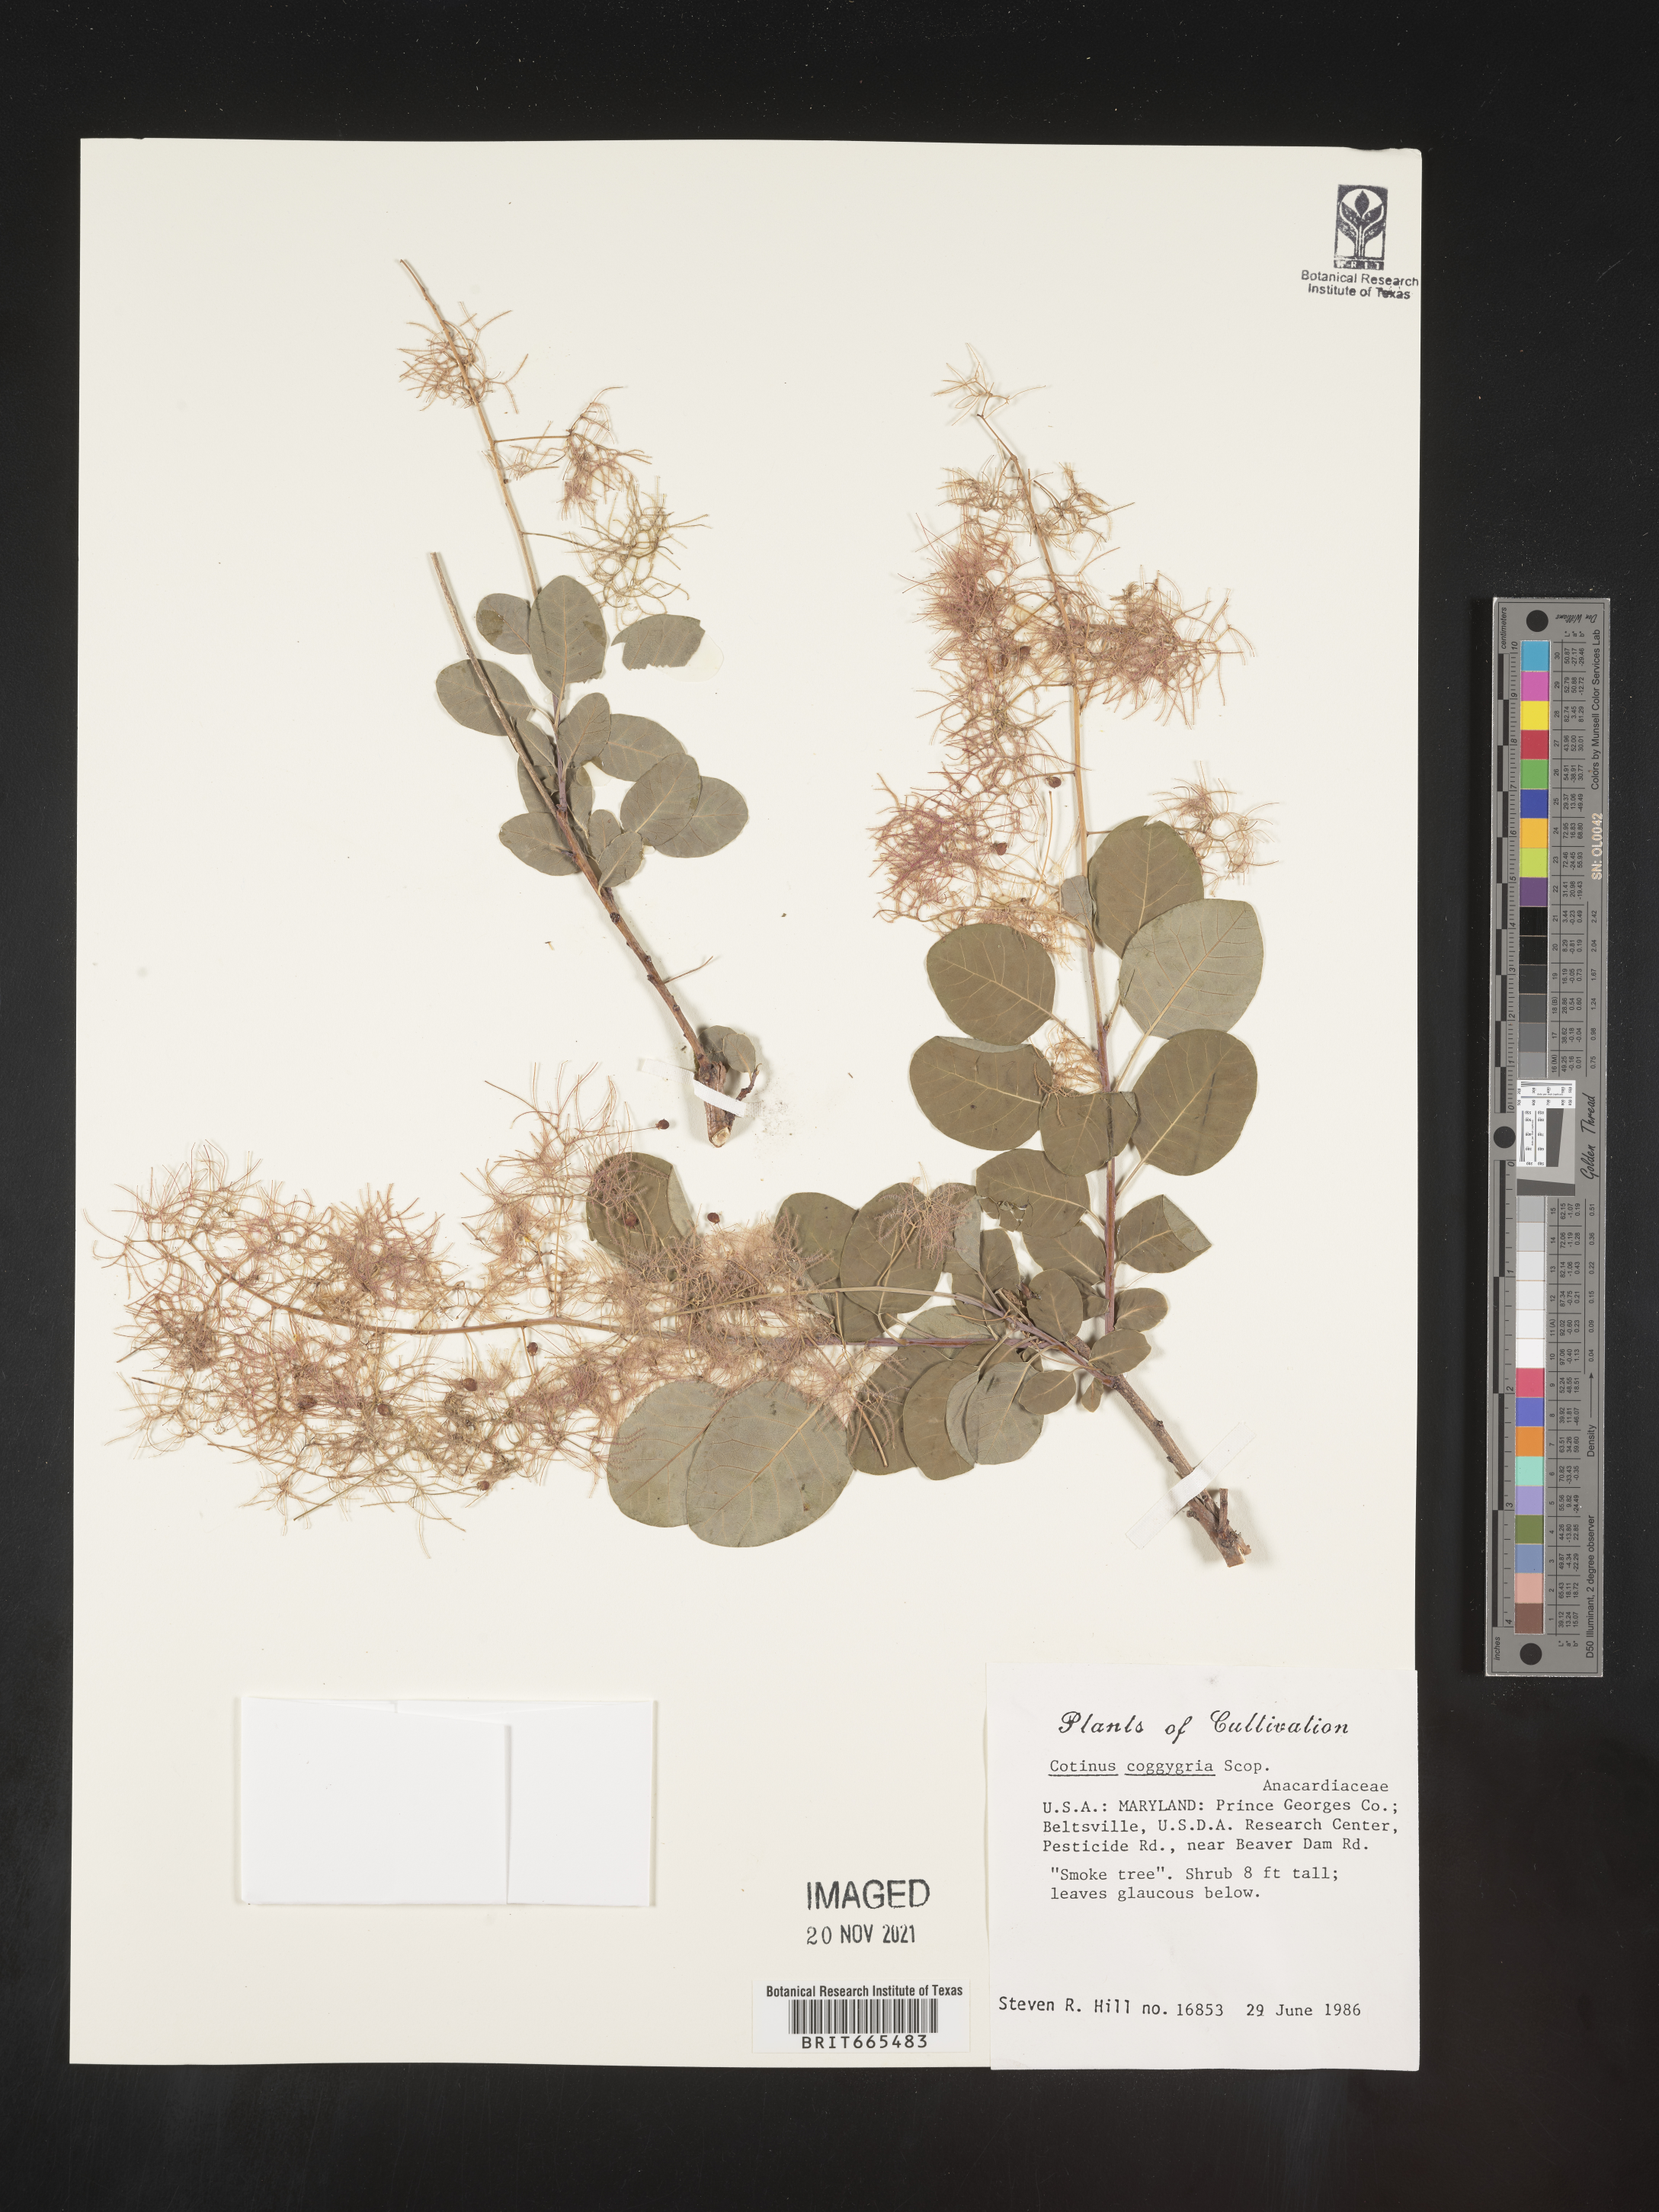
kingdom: Plantae
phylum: Tracheophyta
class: Magnoliopsida
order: Sapindales
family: Anacardiaceae
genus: Cotinus
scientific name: Cotinus
